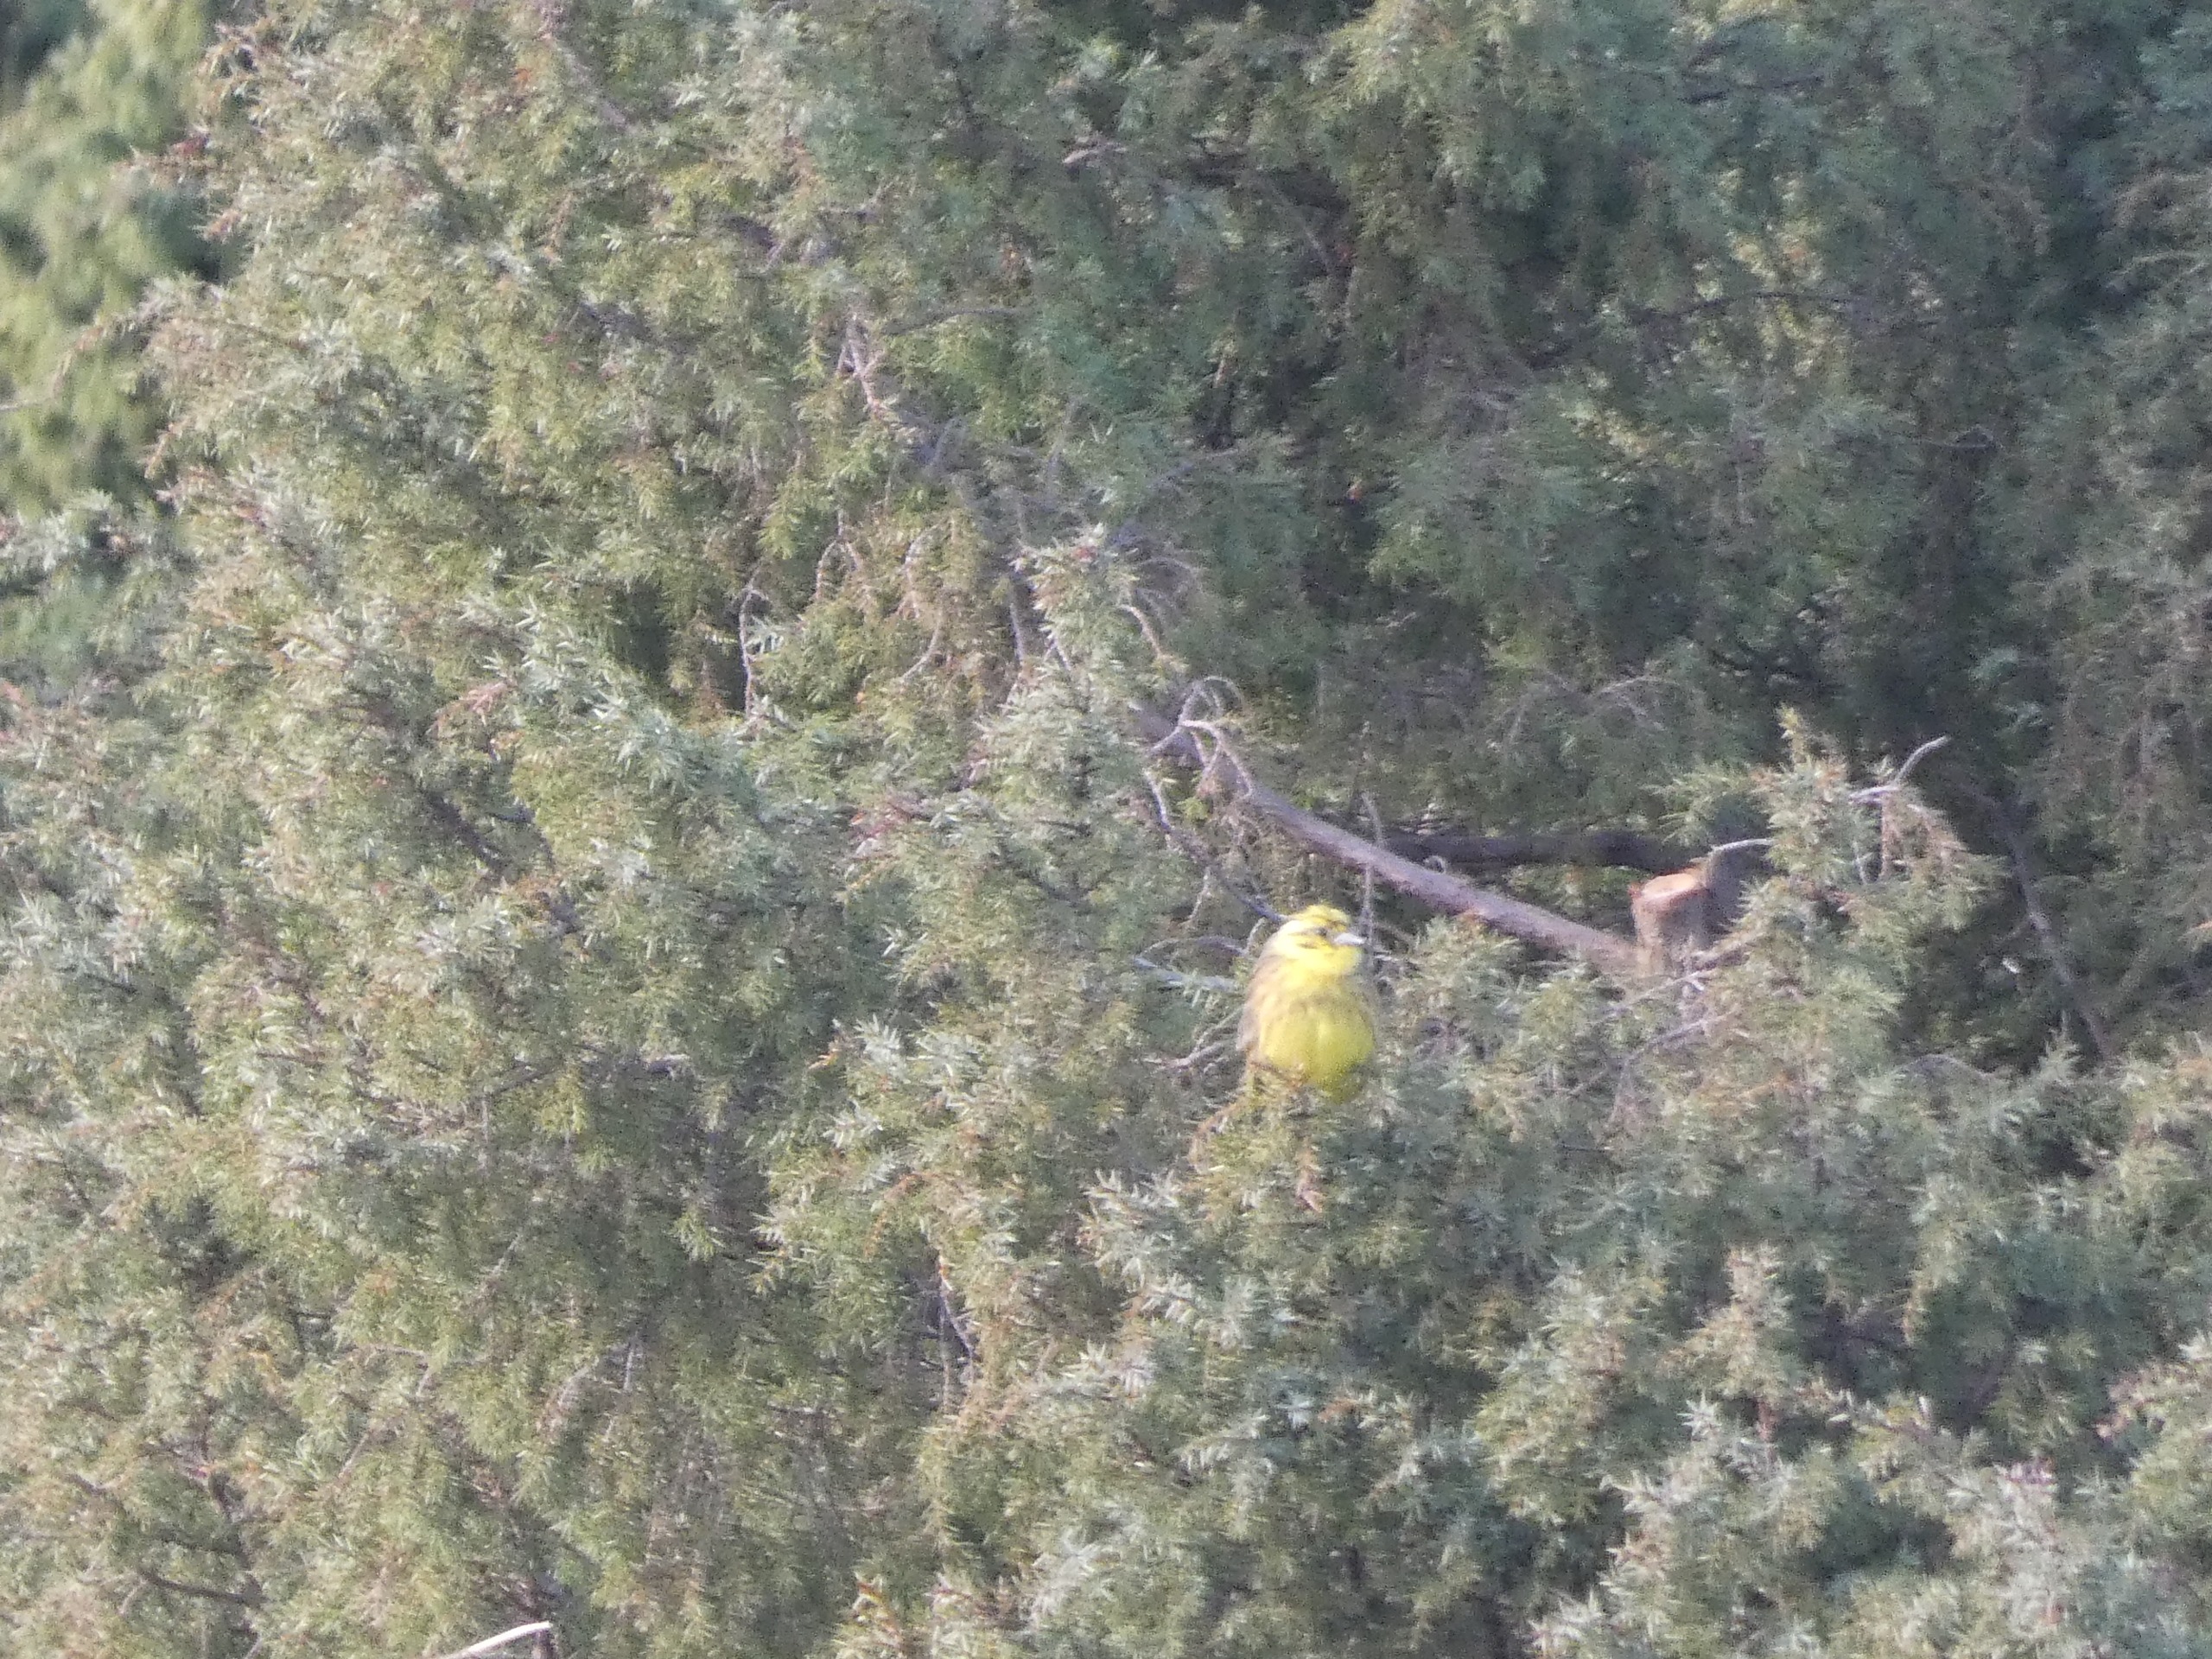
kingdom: Animalia
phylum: Chordata
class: Aves
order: Passeriformes
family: Emberizidae
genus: Emberiza
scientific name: Emberiza citrinella
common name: Gulspurv
